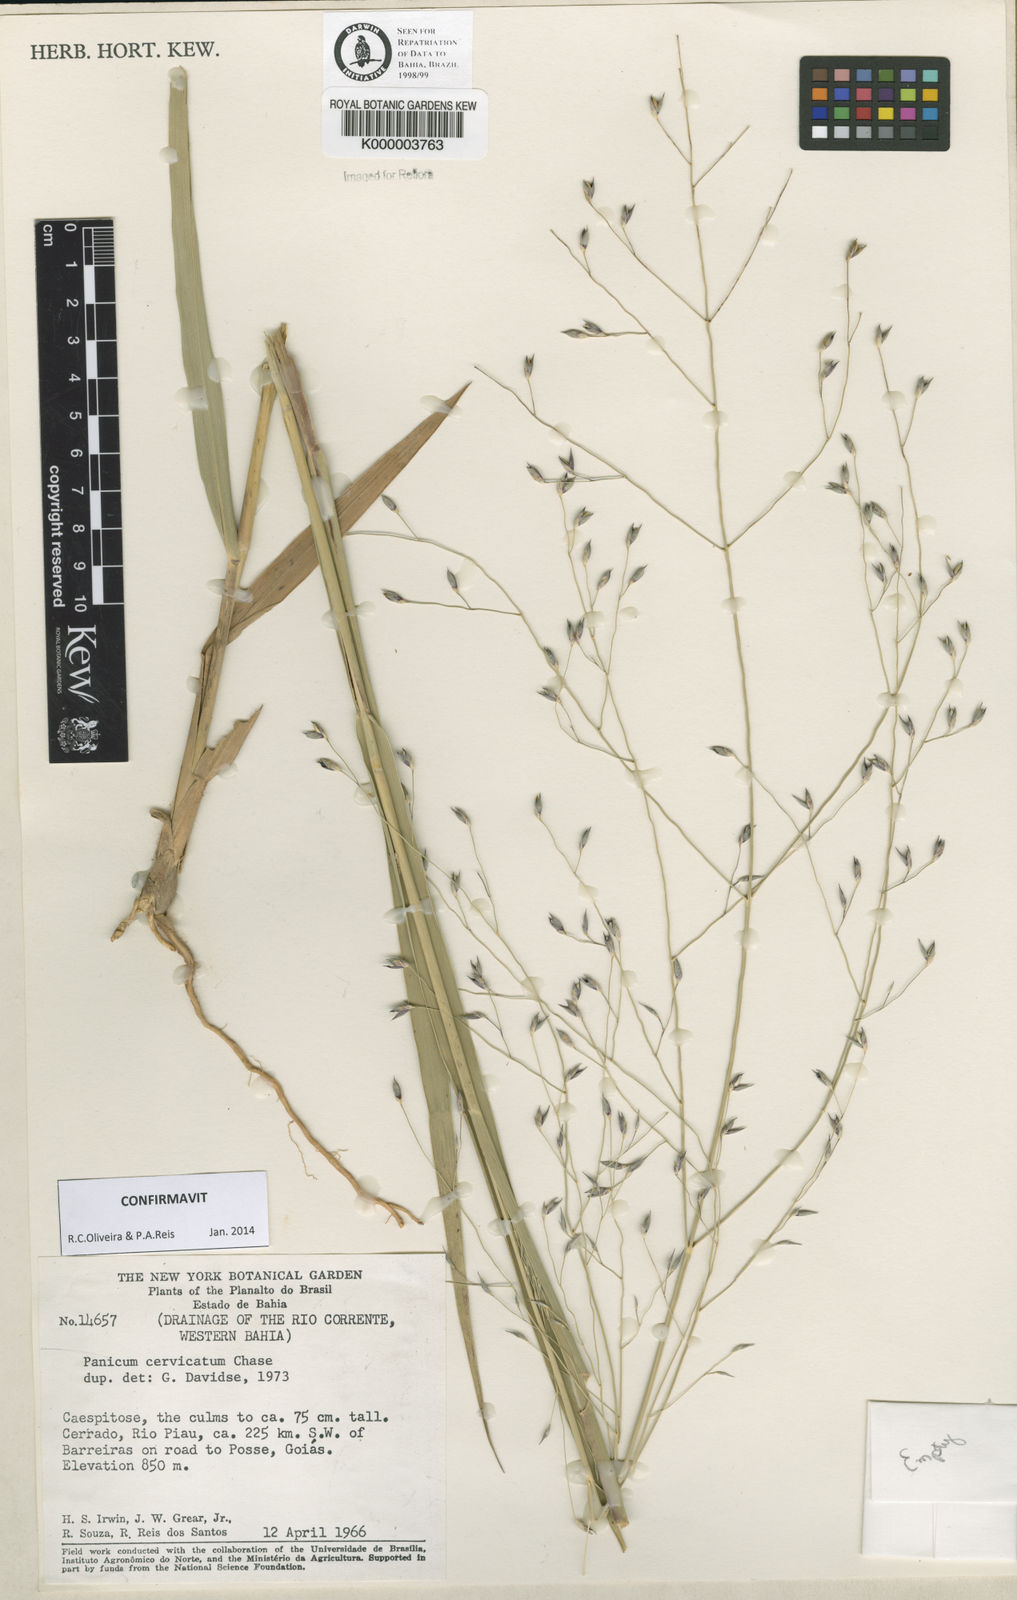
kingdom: Plantae
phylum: Tracheophyta
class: Liliopsida
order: Poales
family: Poaceae
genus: Panicum
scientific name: Panicum cervicatum
